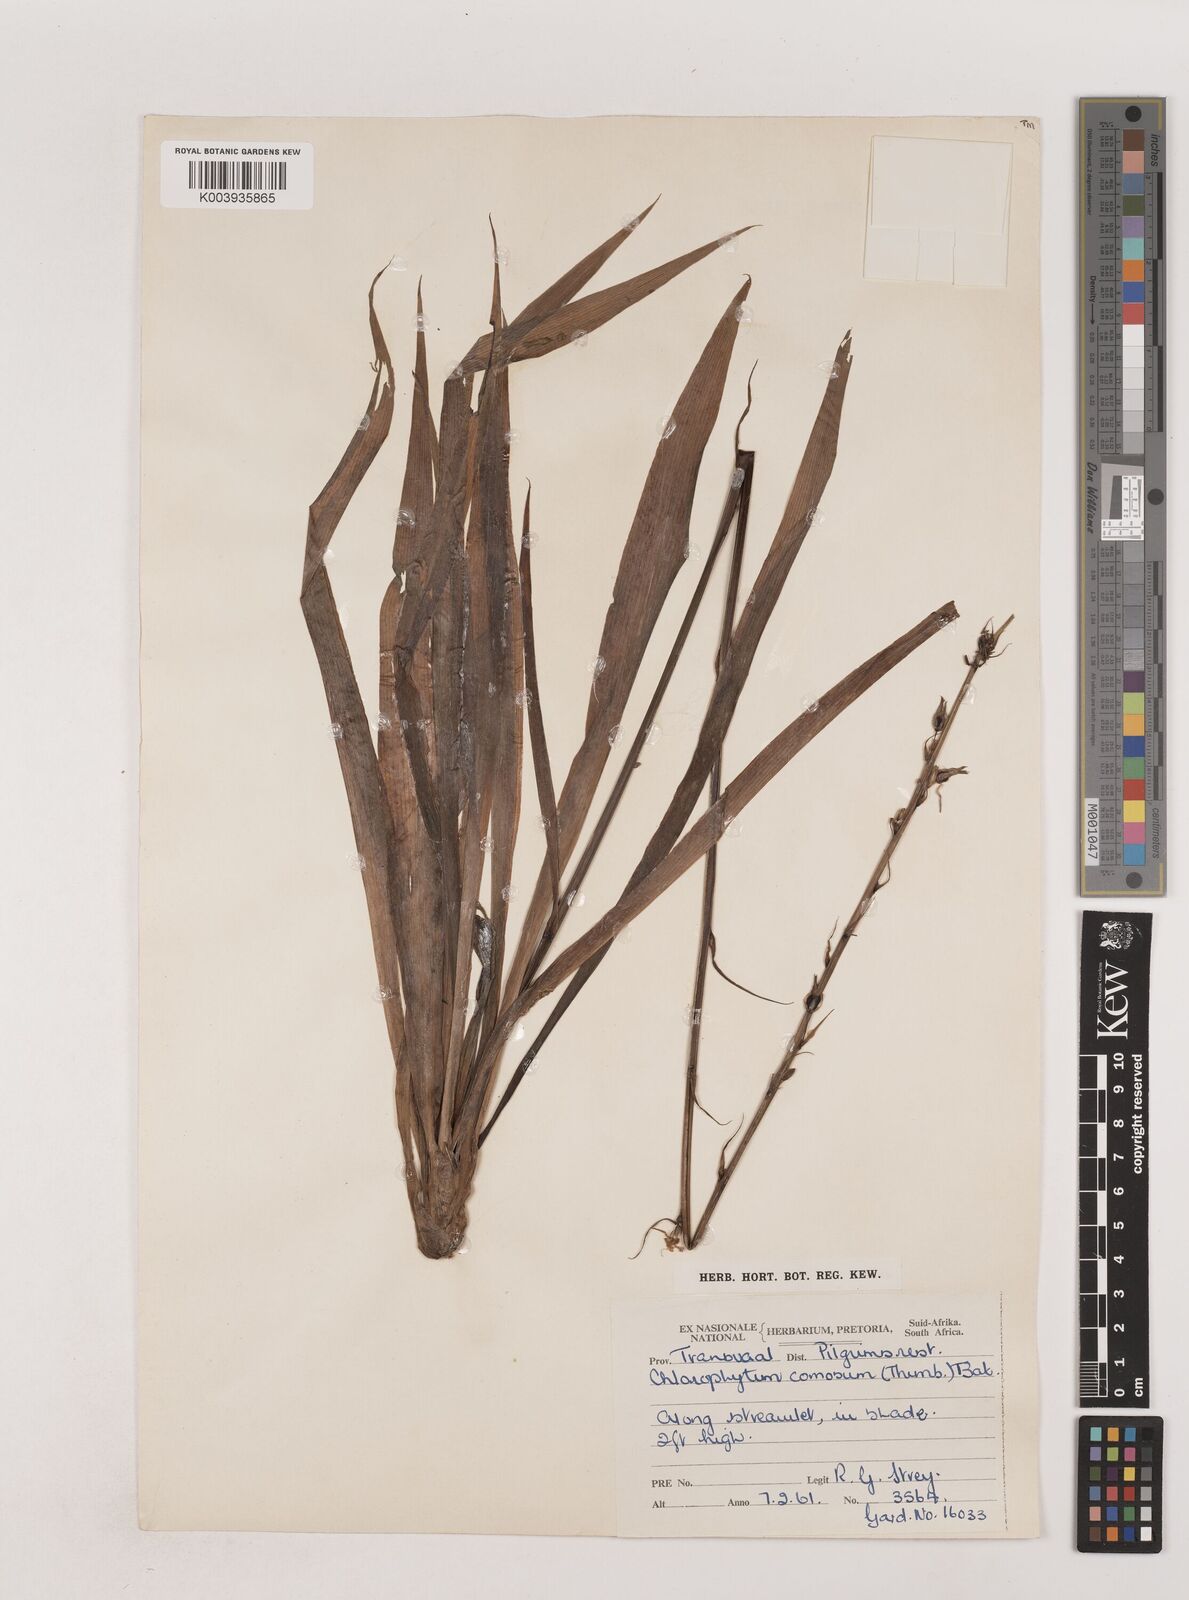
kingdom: Plantae
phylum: Tracheophyta
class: Liliopsida
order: Asparagales
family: Asparagaceae
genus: Chlorophytum
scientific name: Chlorophytum comosum
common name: Spider plant
